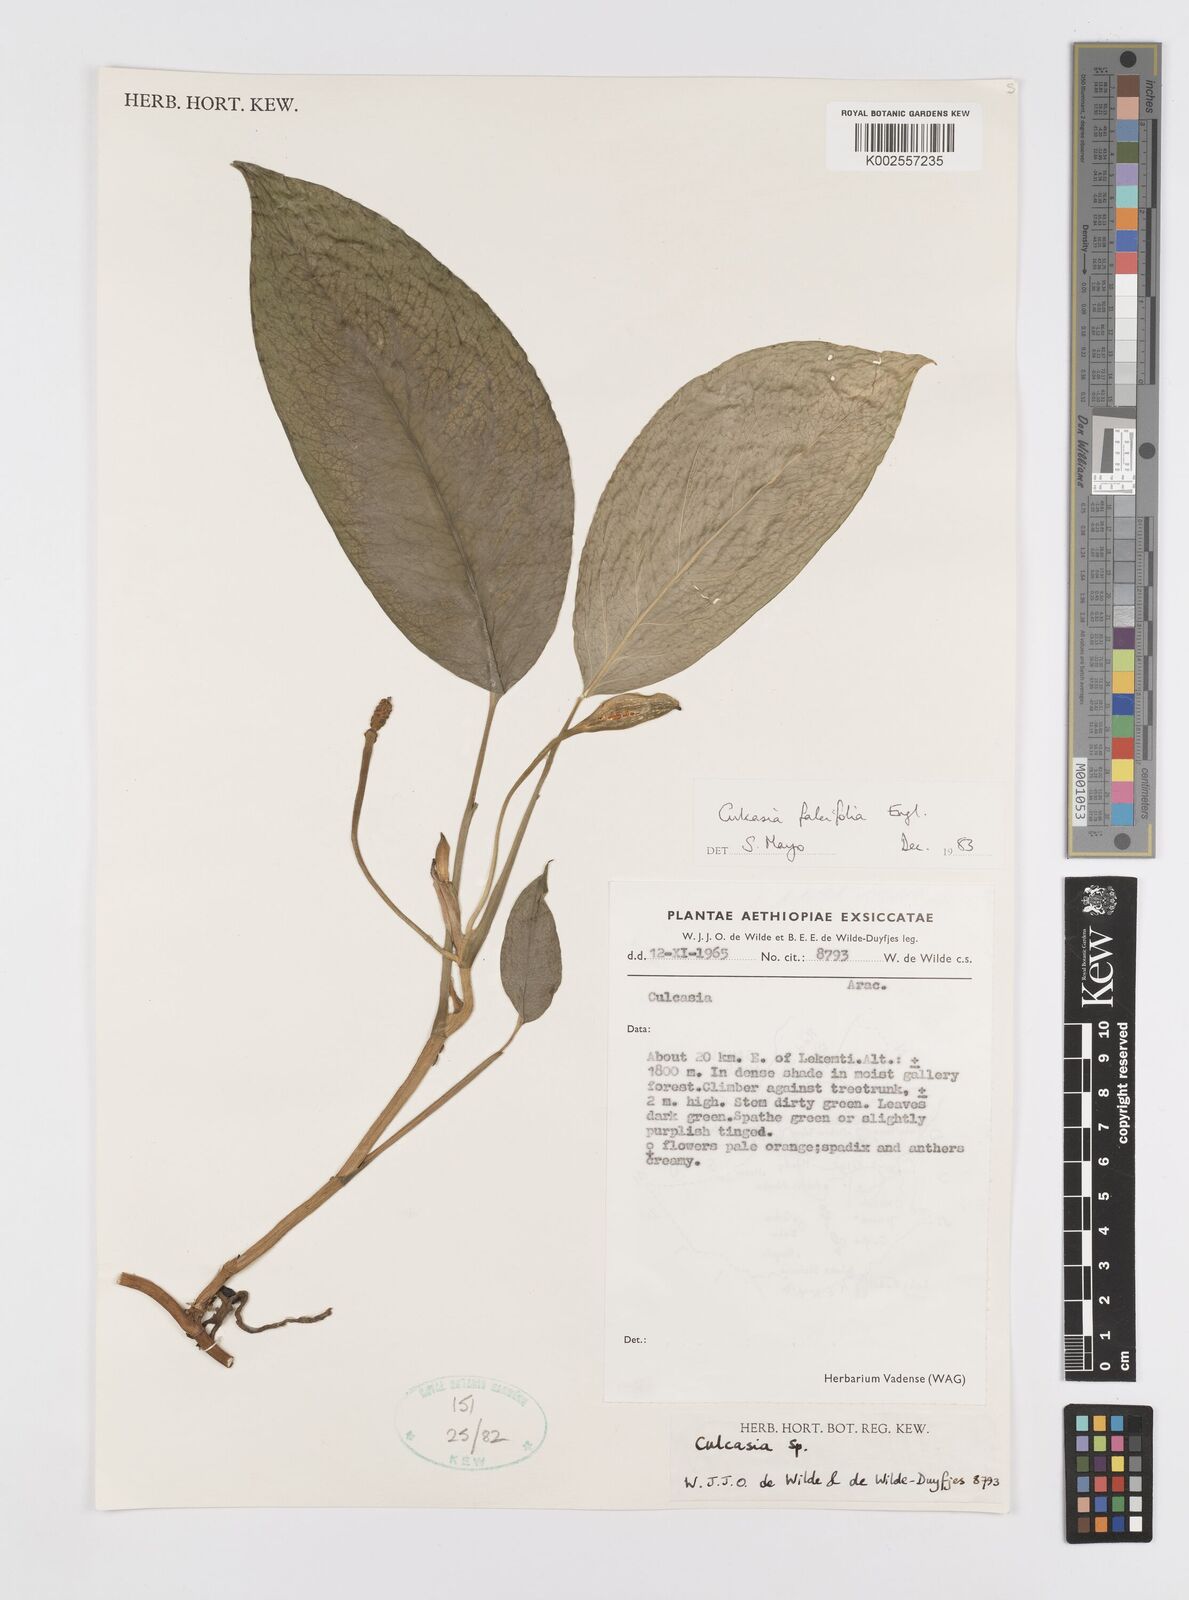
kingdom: Plantae
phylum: Tracheophyta
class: Liliopsida
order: Alismatales
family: Araceae
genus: Culcasia
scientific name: Culcasia falcifolia
